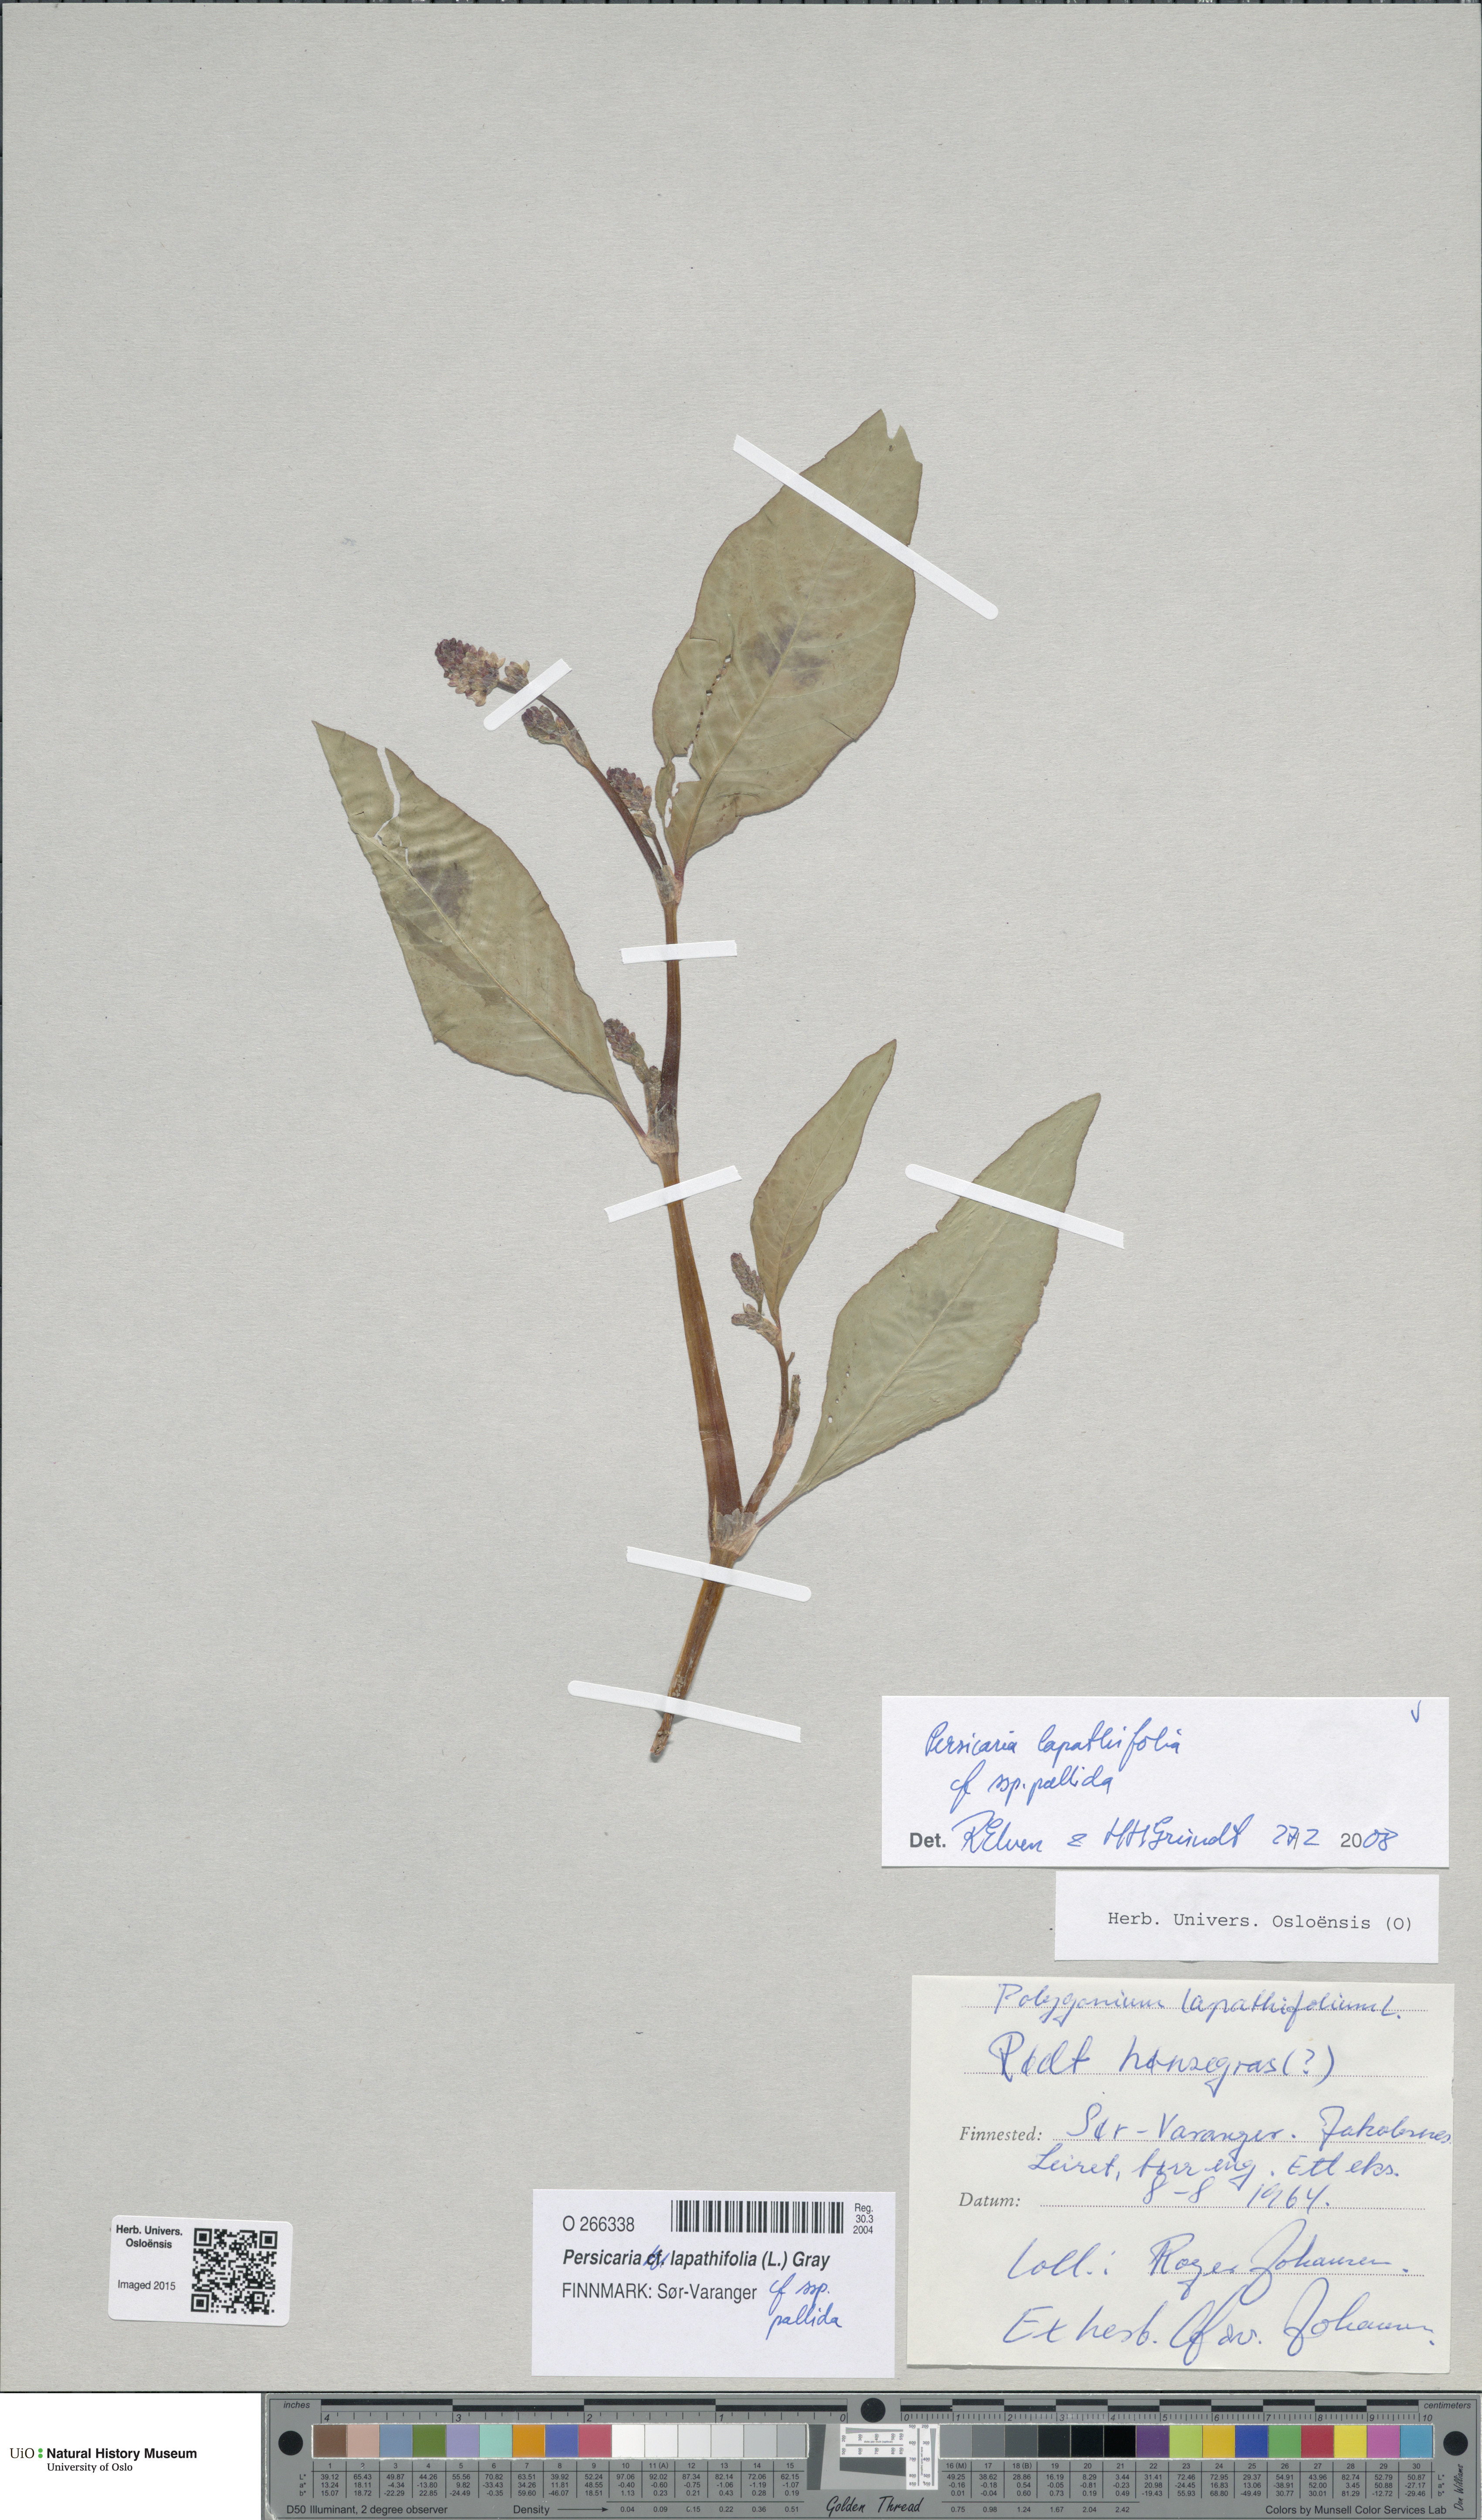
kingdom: Plantae
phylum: Tracheophyta
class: Magnoliopsida
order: Caryophyllales
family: Polygonaceae
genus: Persicaria
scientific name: Persicaria lapathifolia
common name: Curlytop knotweed
